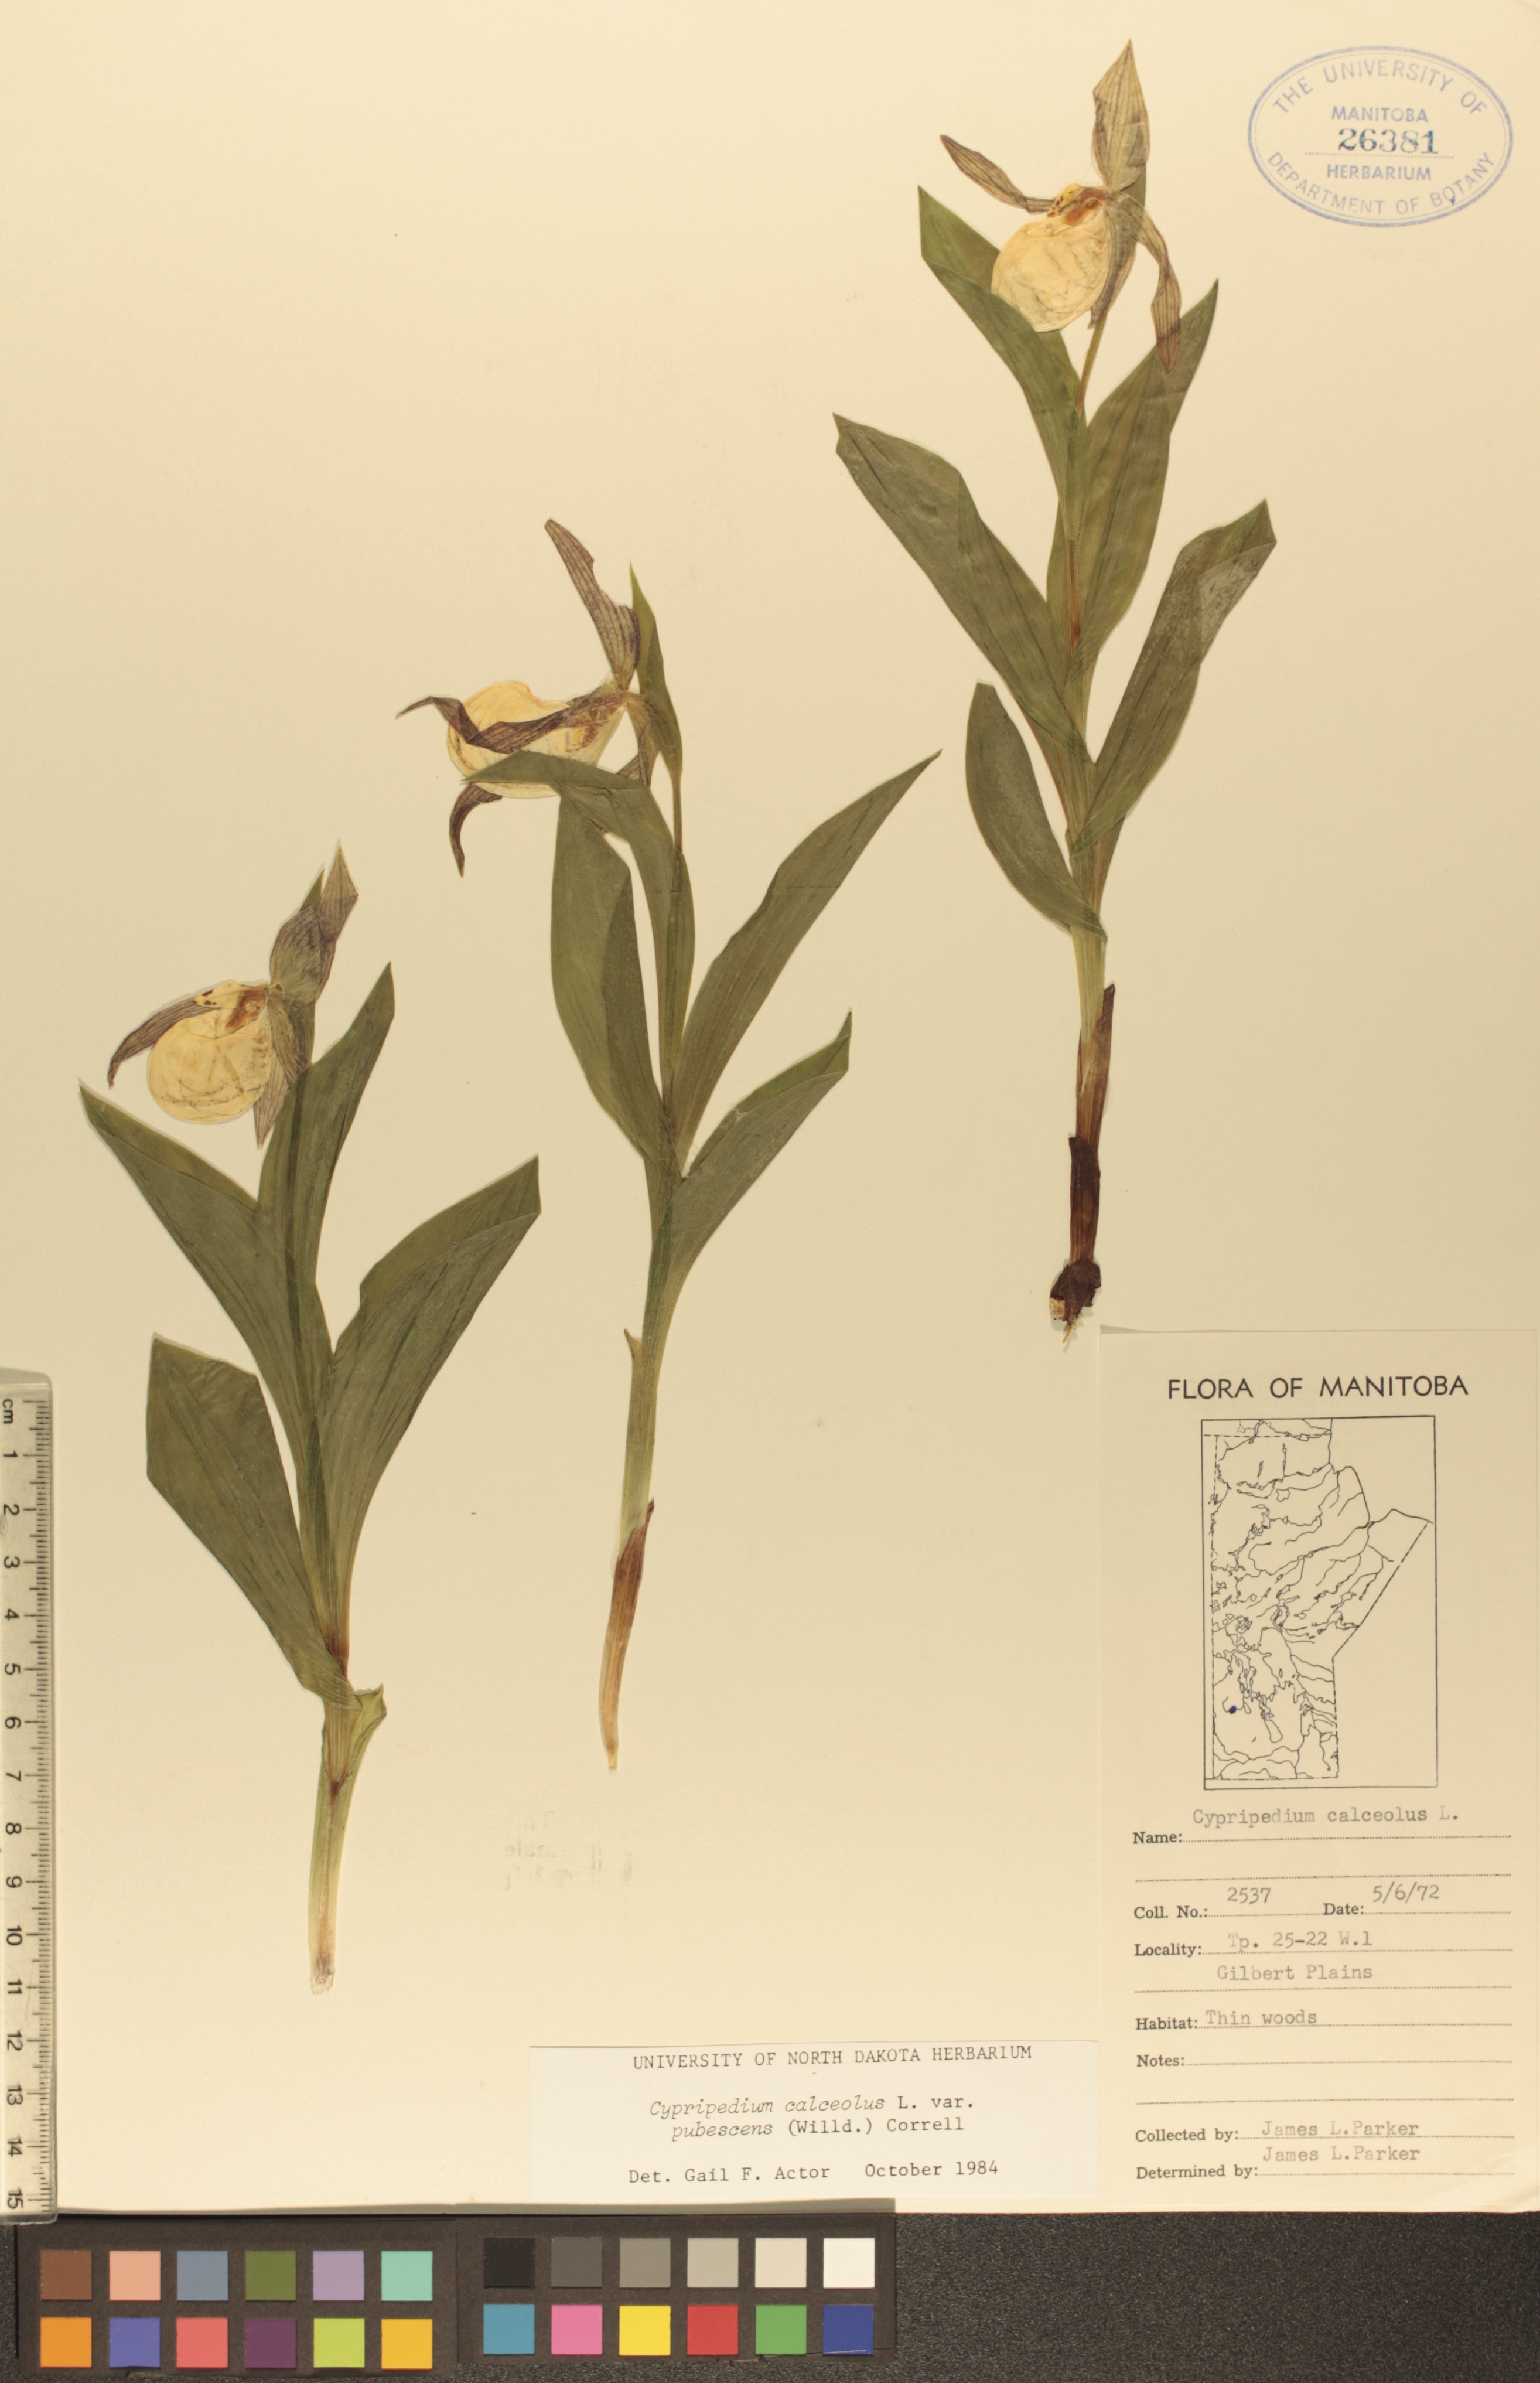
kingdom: Plantae
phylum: Tracheophyta
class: Liliopsida
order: Asparagales
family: Orchidaceae
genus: Cypripedium
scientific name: Cypripedium parviflorum
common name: American yellow lady's-slipper
